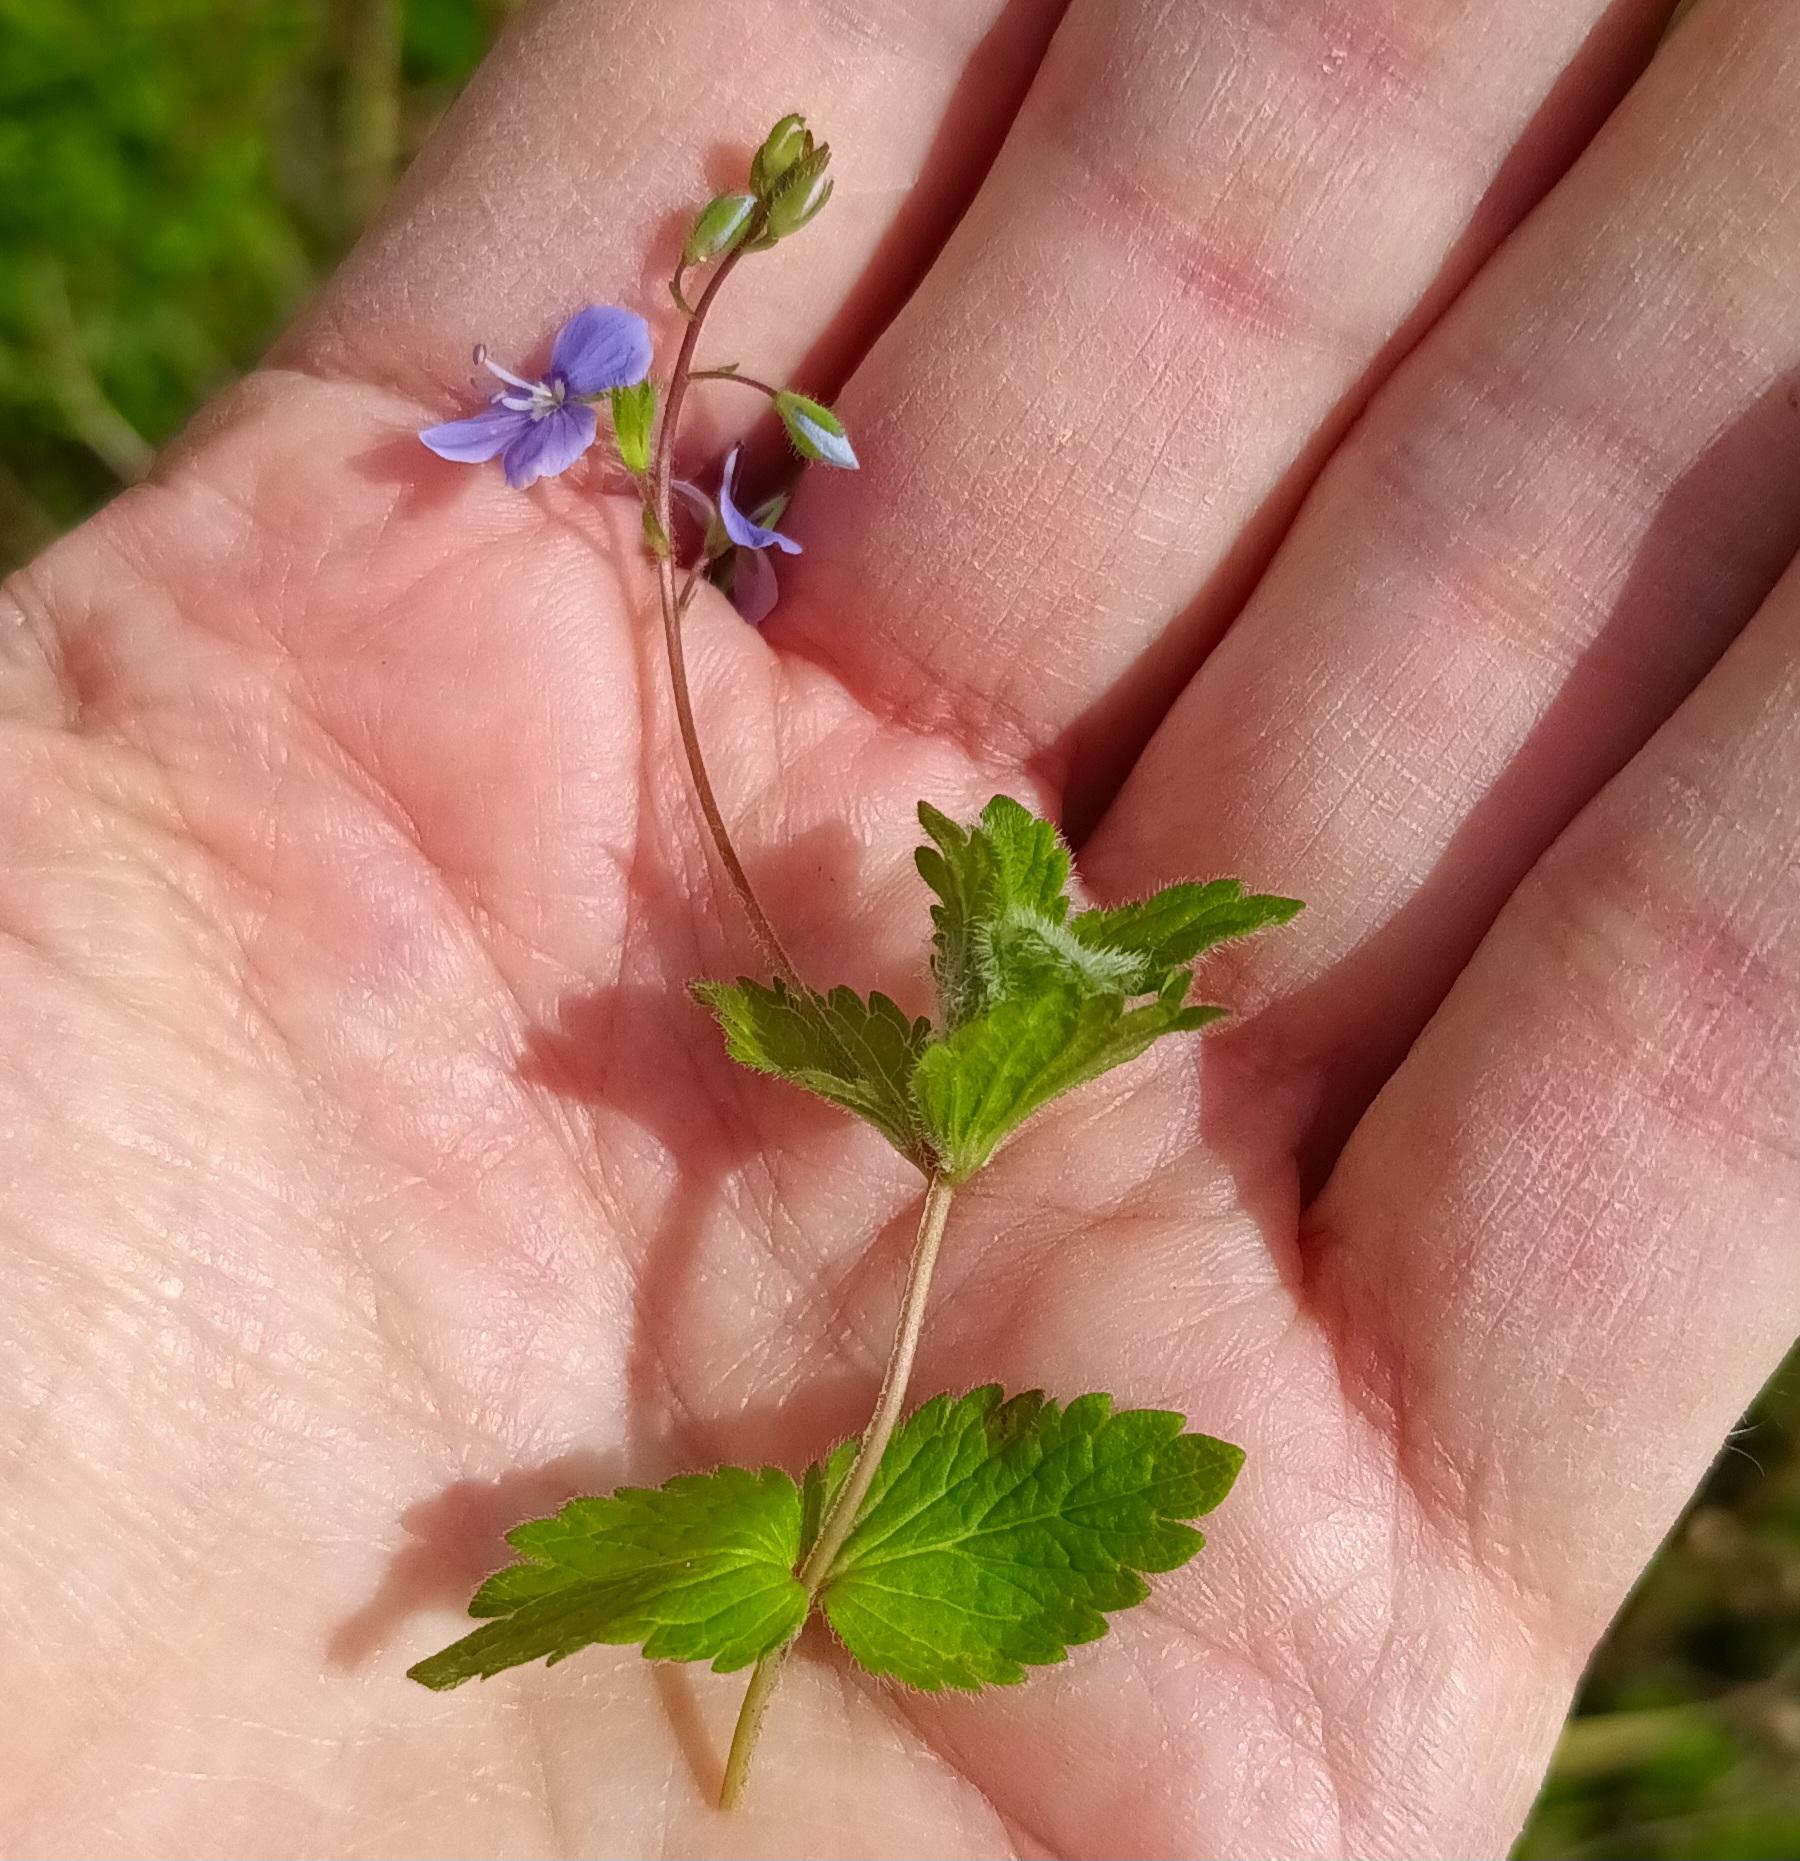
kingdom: Plantae
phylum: Tracheophyta
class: Magnoliopsida
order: Lamiales
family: Plantaginaceae
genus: Veronica
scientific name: Veronica chamaedrys
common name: Tveskægget ærenpris
